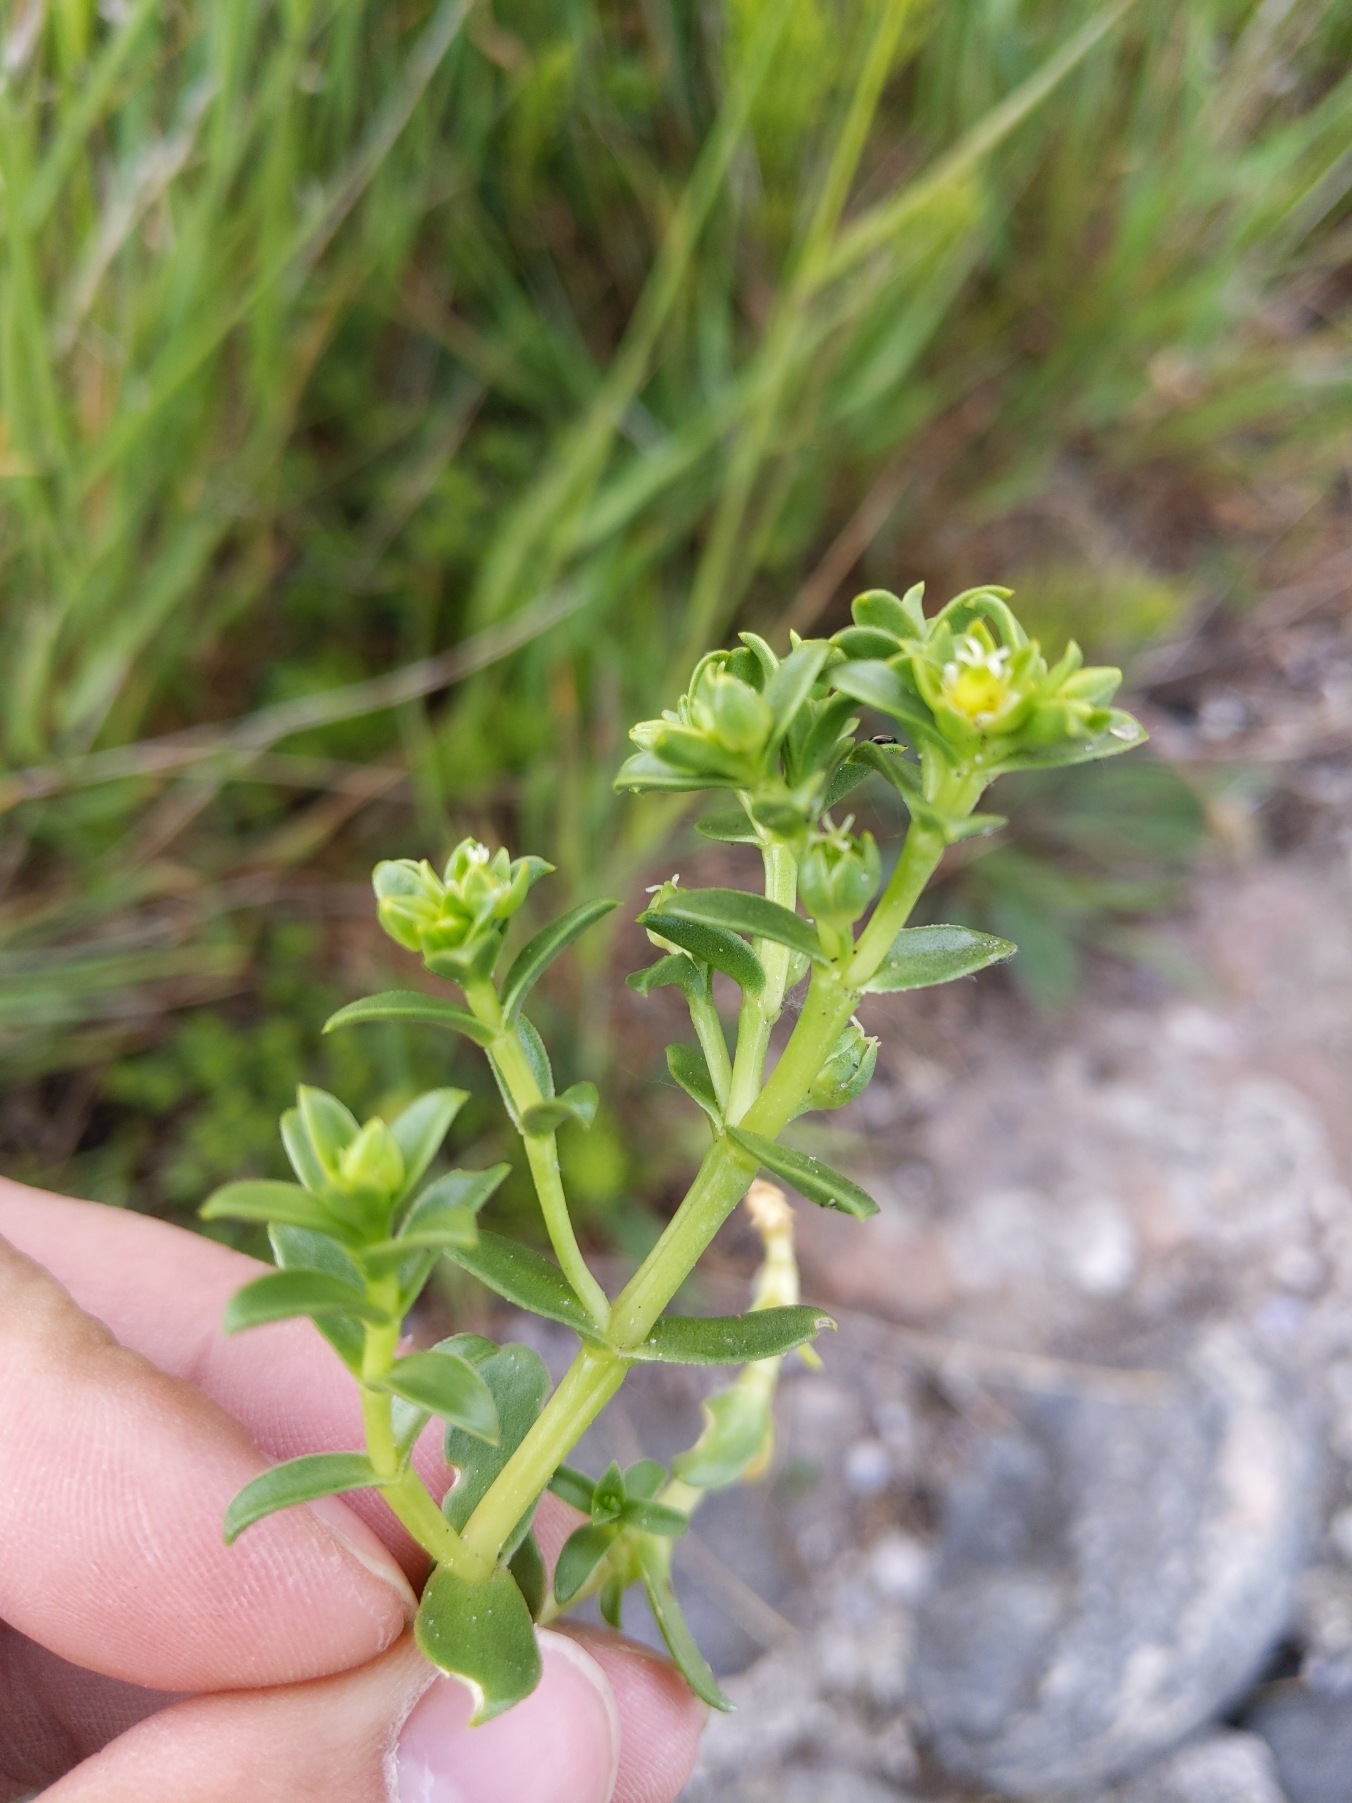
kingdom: Plantae
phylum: Tracheophyta
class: Magnoliopsida
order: Caryophyllales
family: Caryophyllaceae
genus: Honckenya
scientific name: Honckenya peploides
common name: Strandarve
